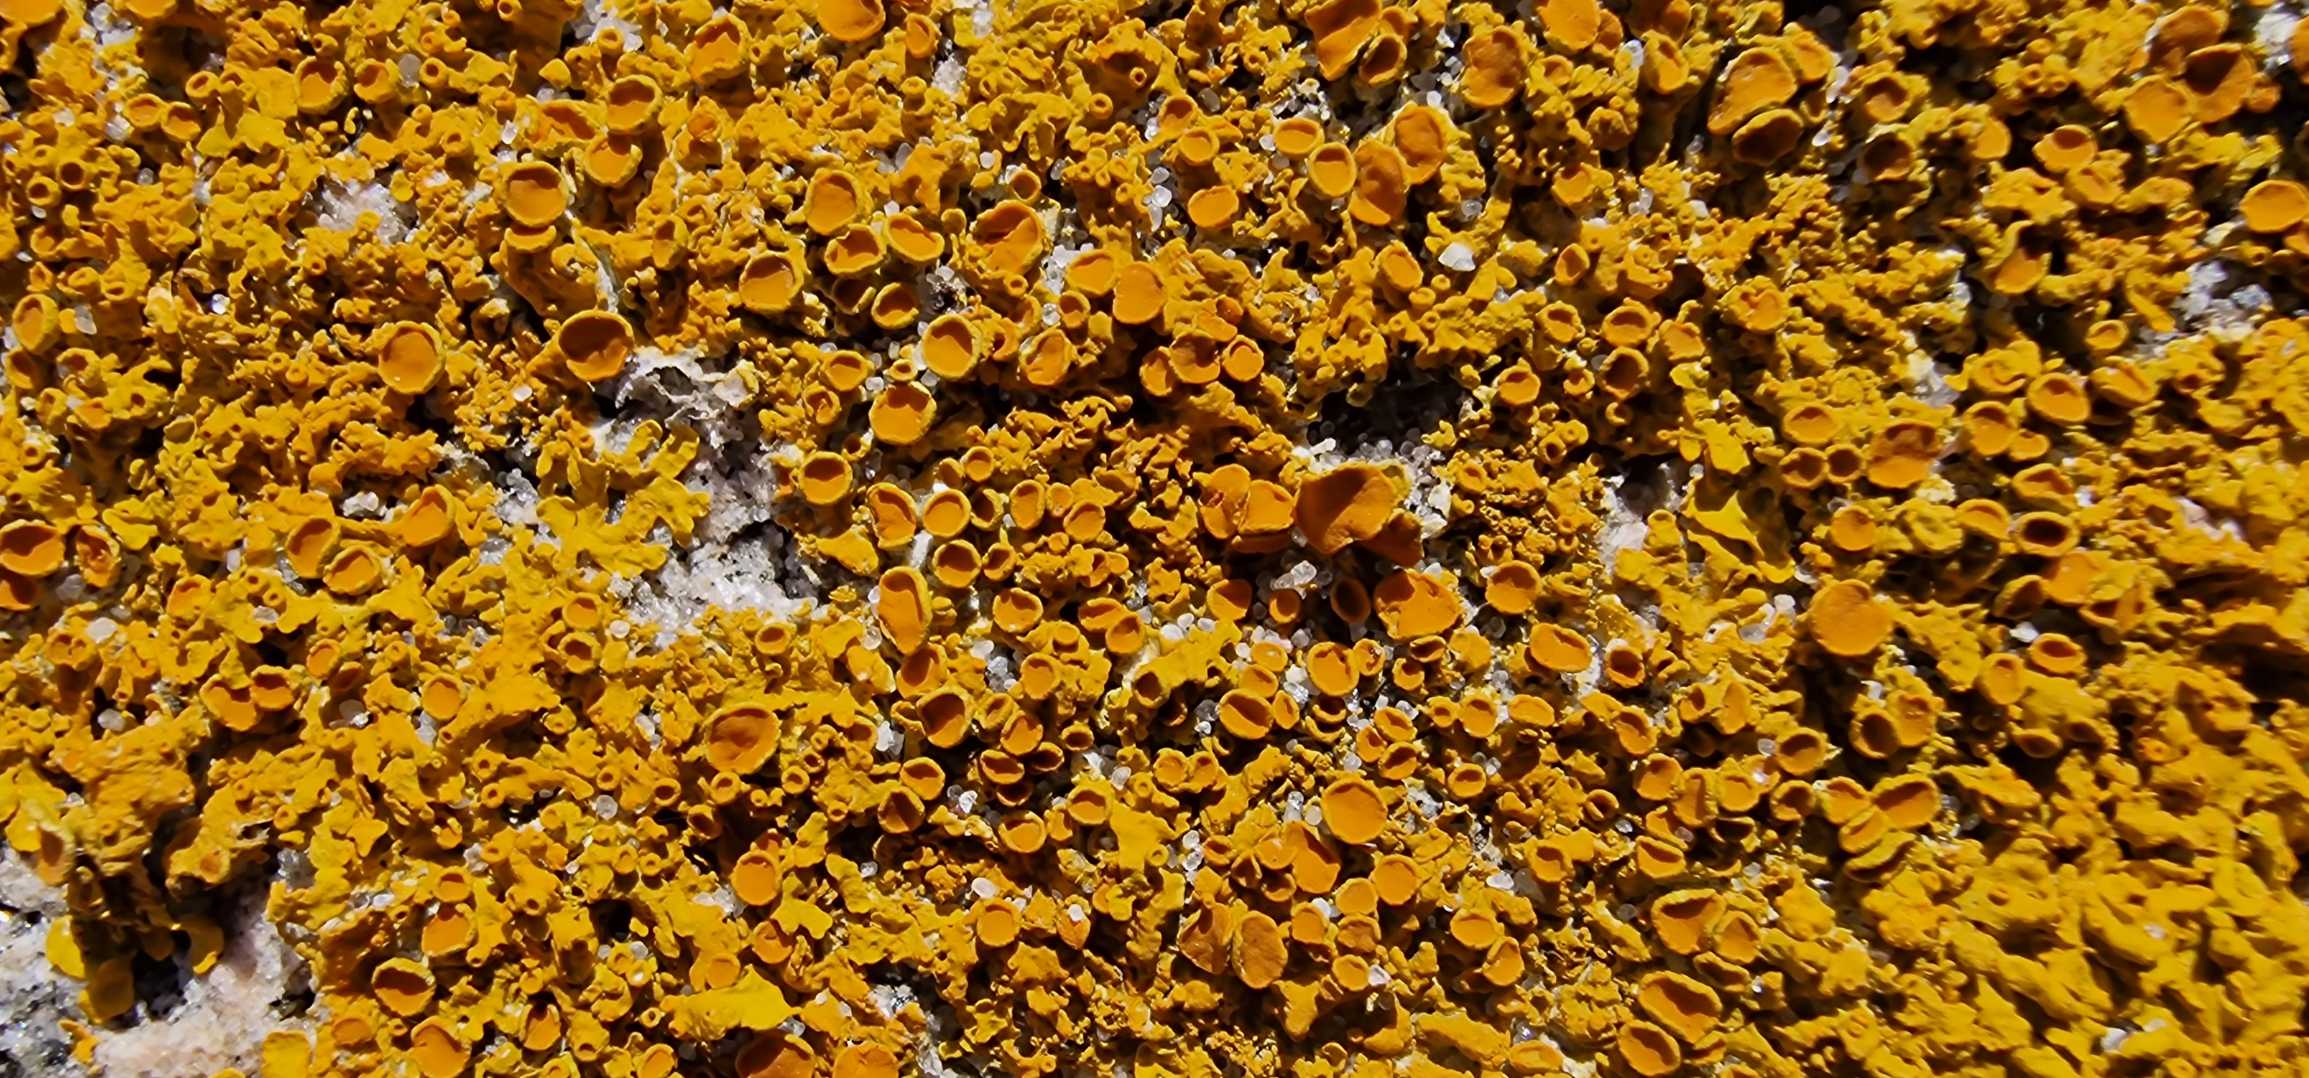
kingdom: Fungi
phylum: Ascomycota
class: Lecanoromycetes
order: Teloschistales
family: Teloschistaceae
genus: Xanthoria
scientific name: Xanthoria parietina
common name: Almindelig væggelav
